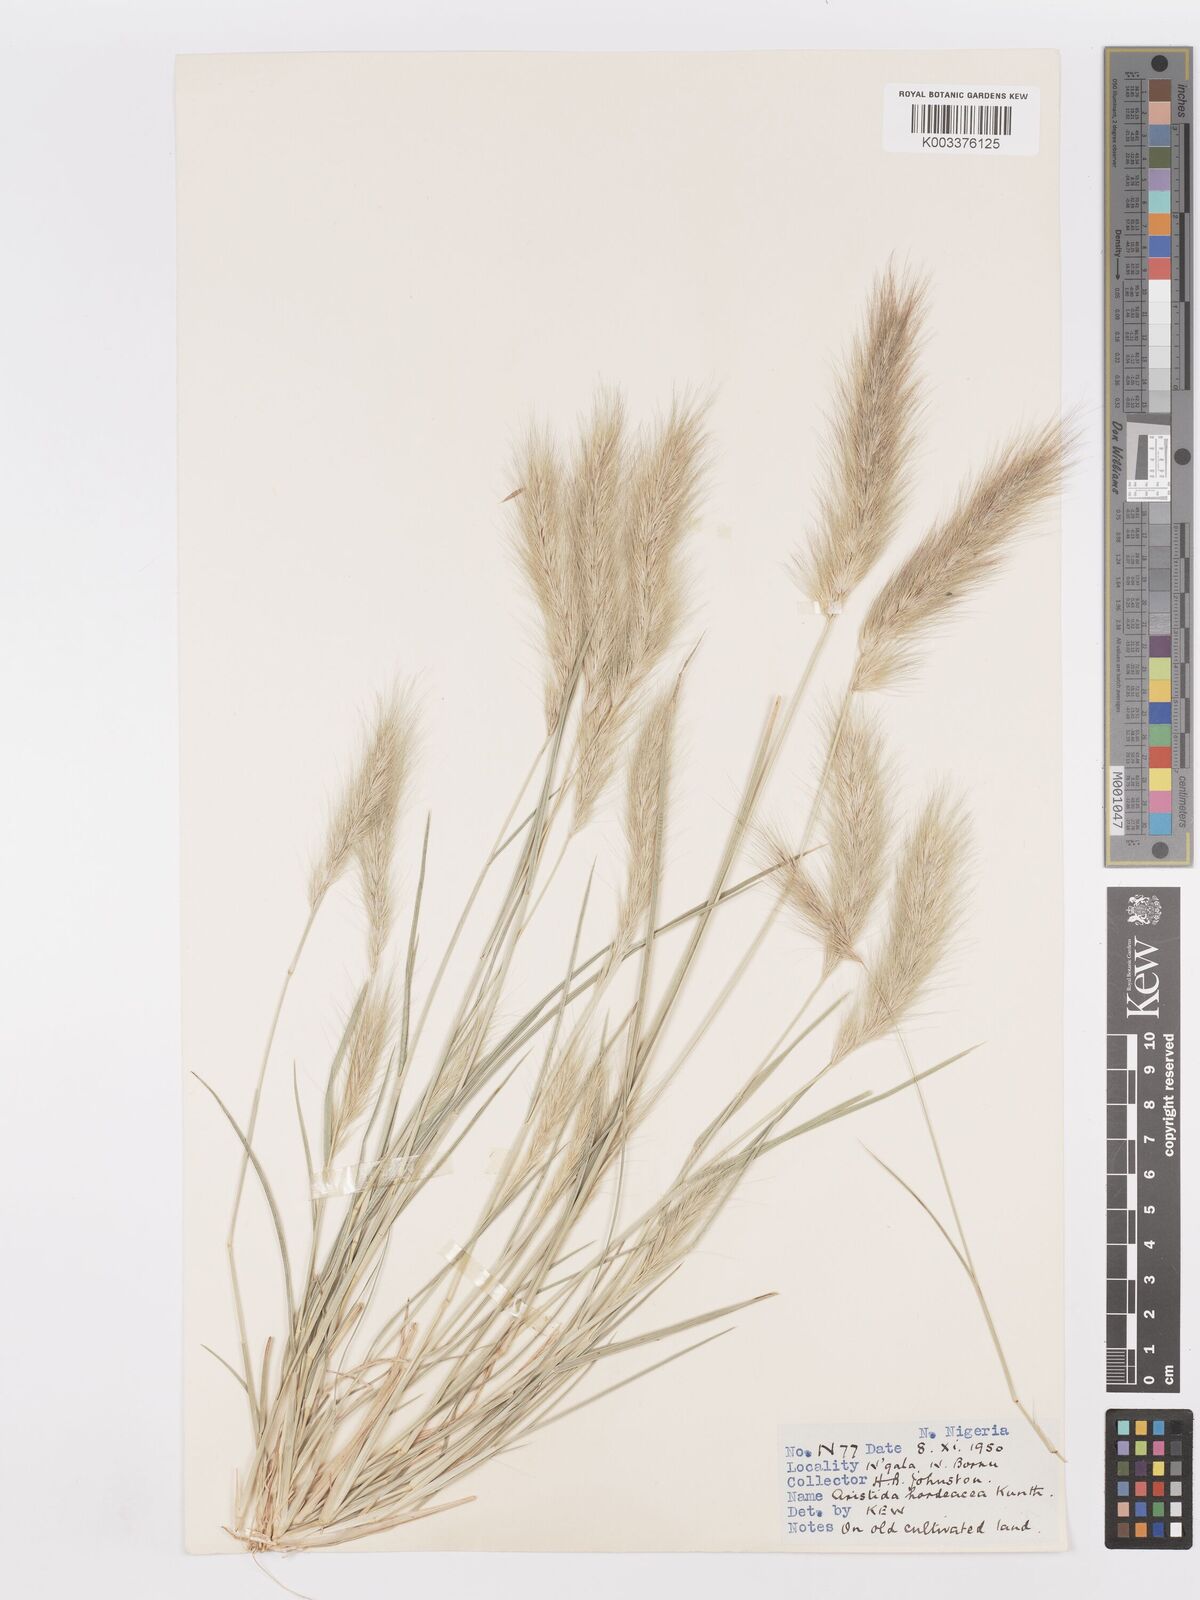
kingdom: Plantae
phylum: Tracheophyta
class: Liliopsida
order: Poales
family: Poaceae
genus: Aristida
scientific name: Aristida hordeacea
